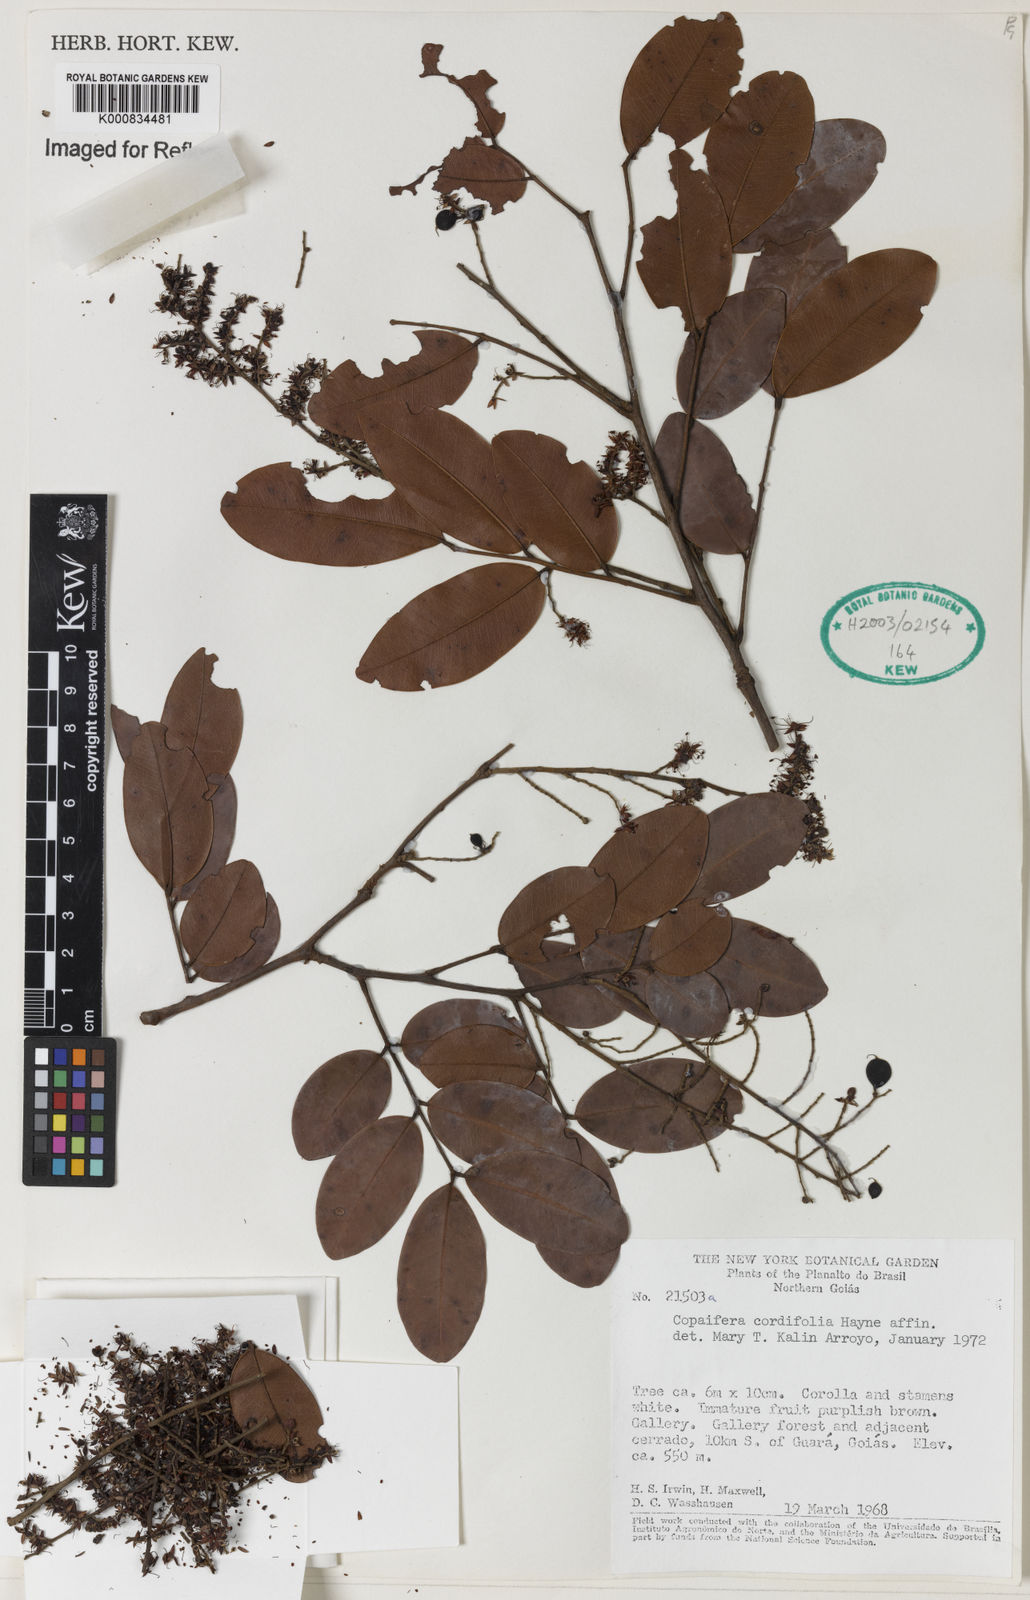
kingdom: Plantae
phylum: Tracheophyta
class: Magnoliopsida
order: Fabales
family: Fabaceae
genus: Copaifera
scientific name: Copaifera coriacea
